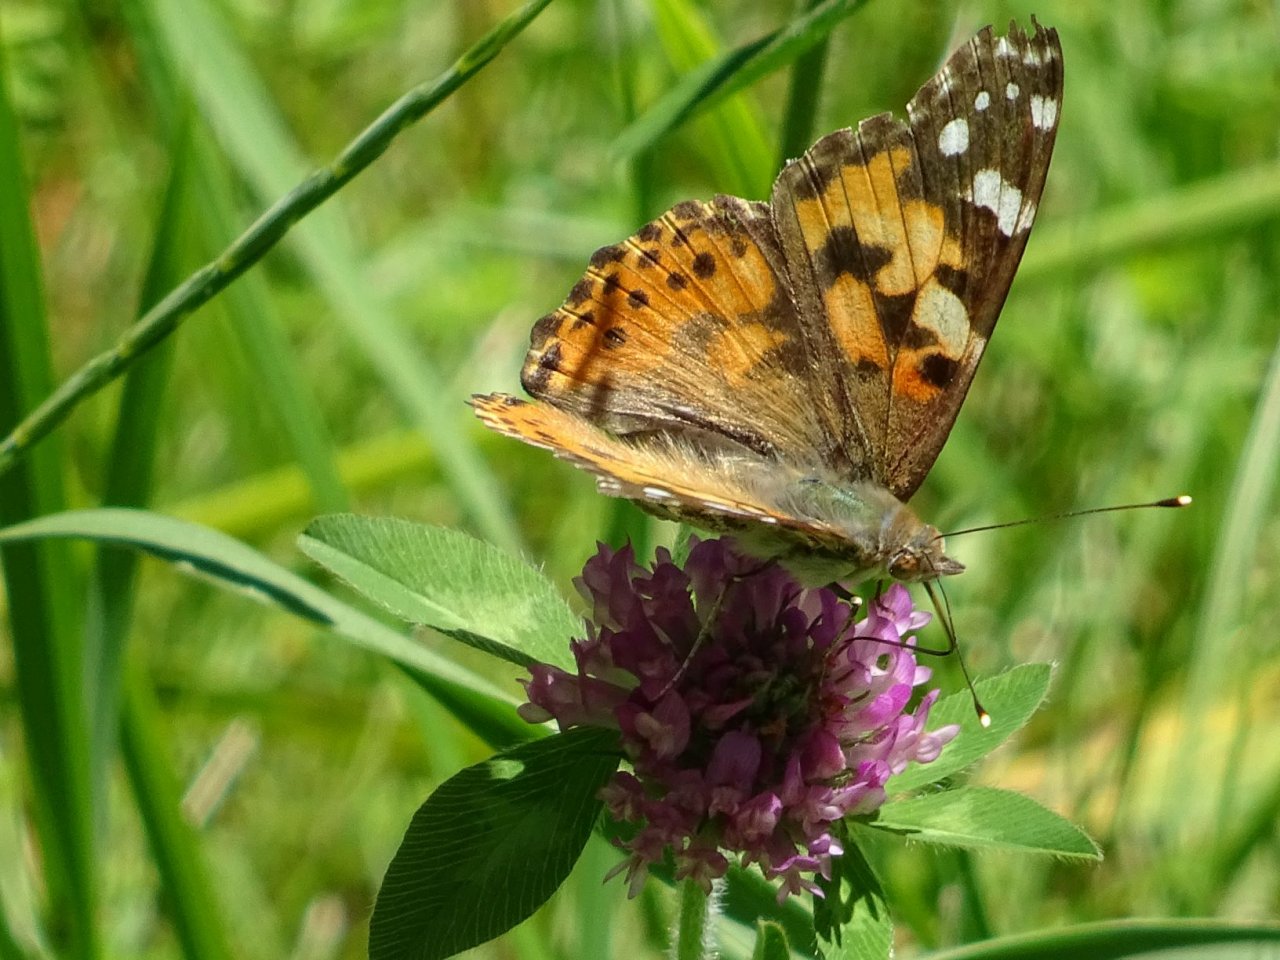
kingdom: Animalia
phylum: Arthropoda
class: Insecta
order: Lepidoptera
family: Nymphalidae
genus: Vanessa
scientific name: Vanessa cardui
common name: Painted Lady
